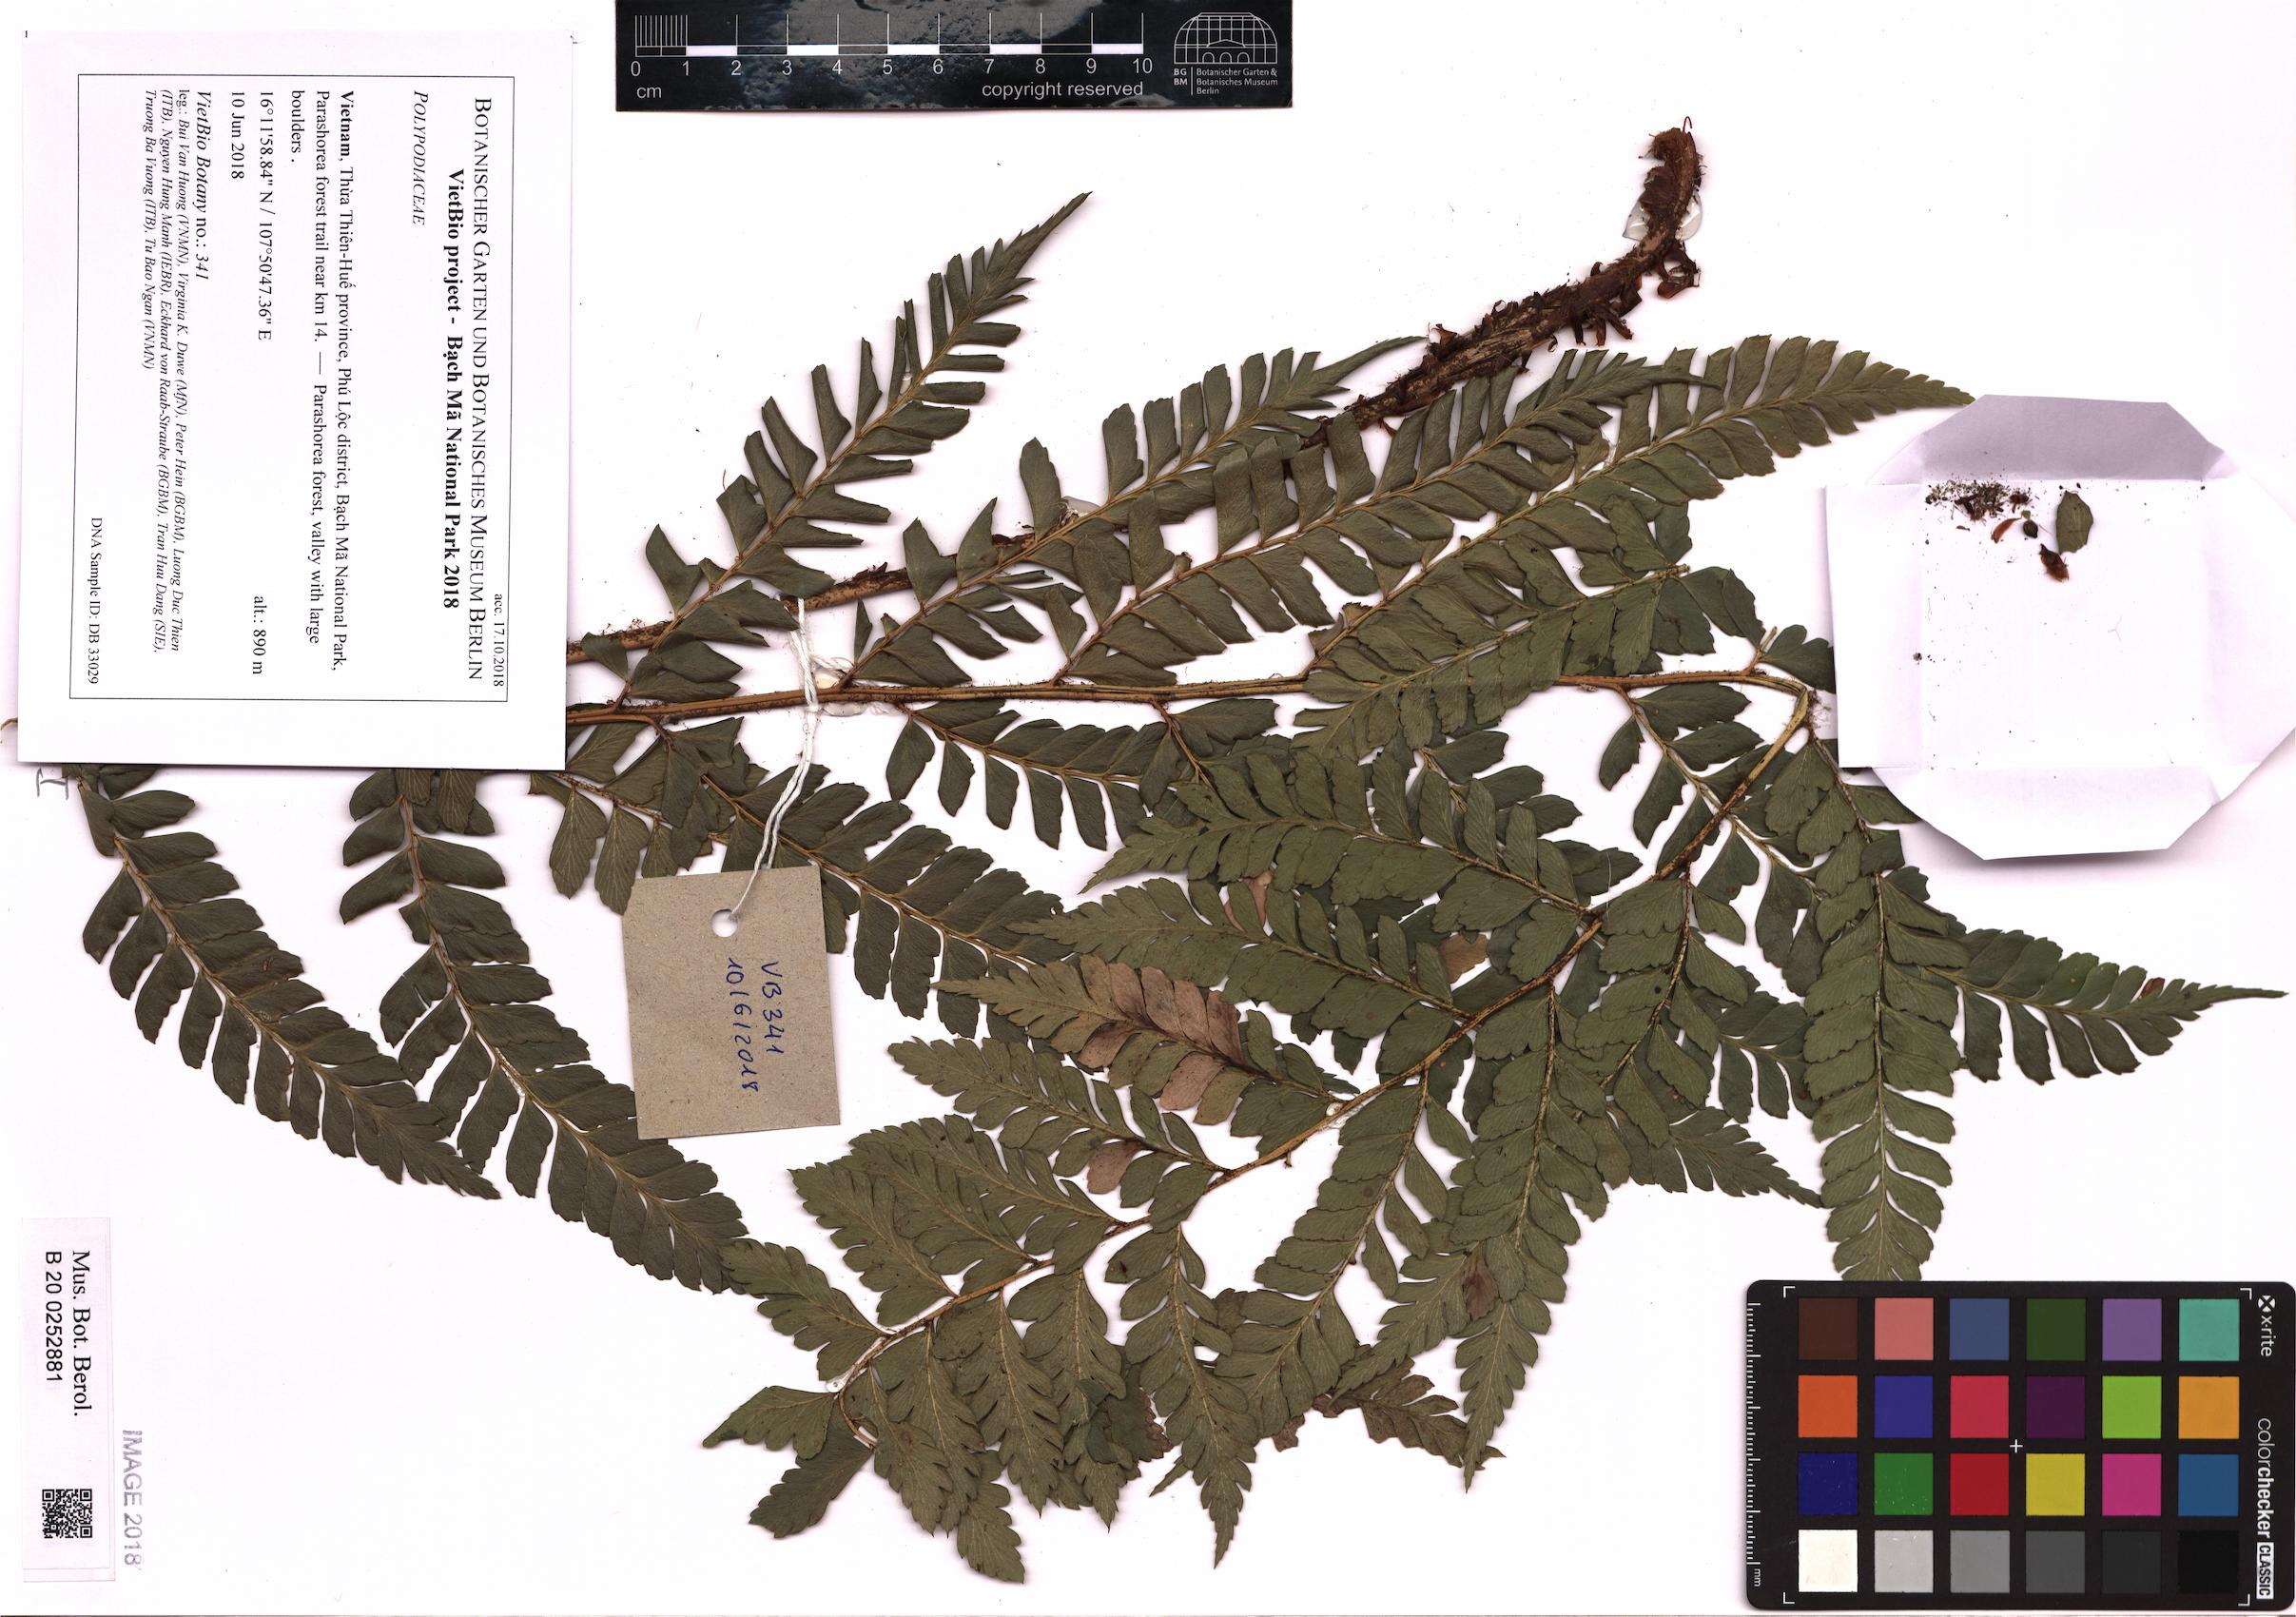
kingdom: Plantae
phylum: Tracheophyta
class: Polypodiopsida
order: Polypodiales
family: Polypodiaceae
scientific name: Polypodiaceae
